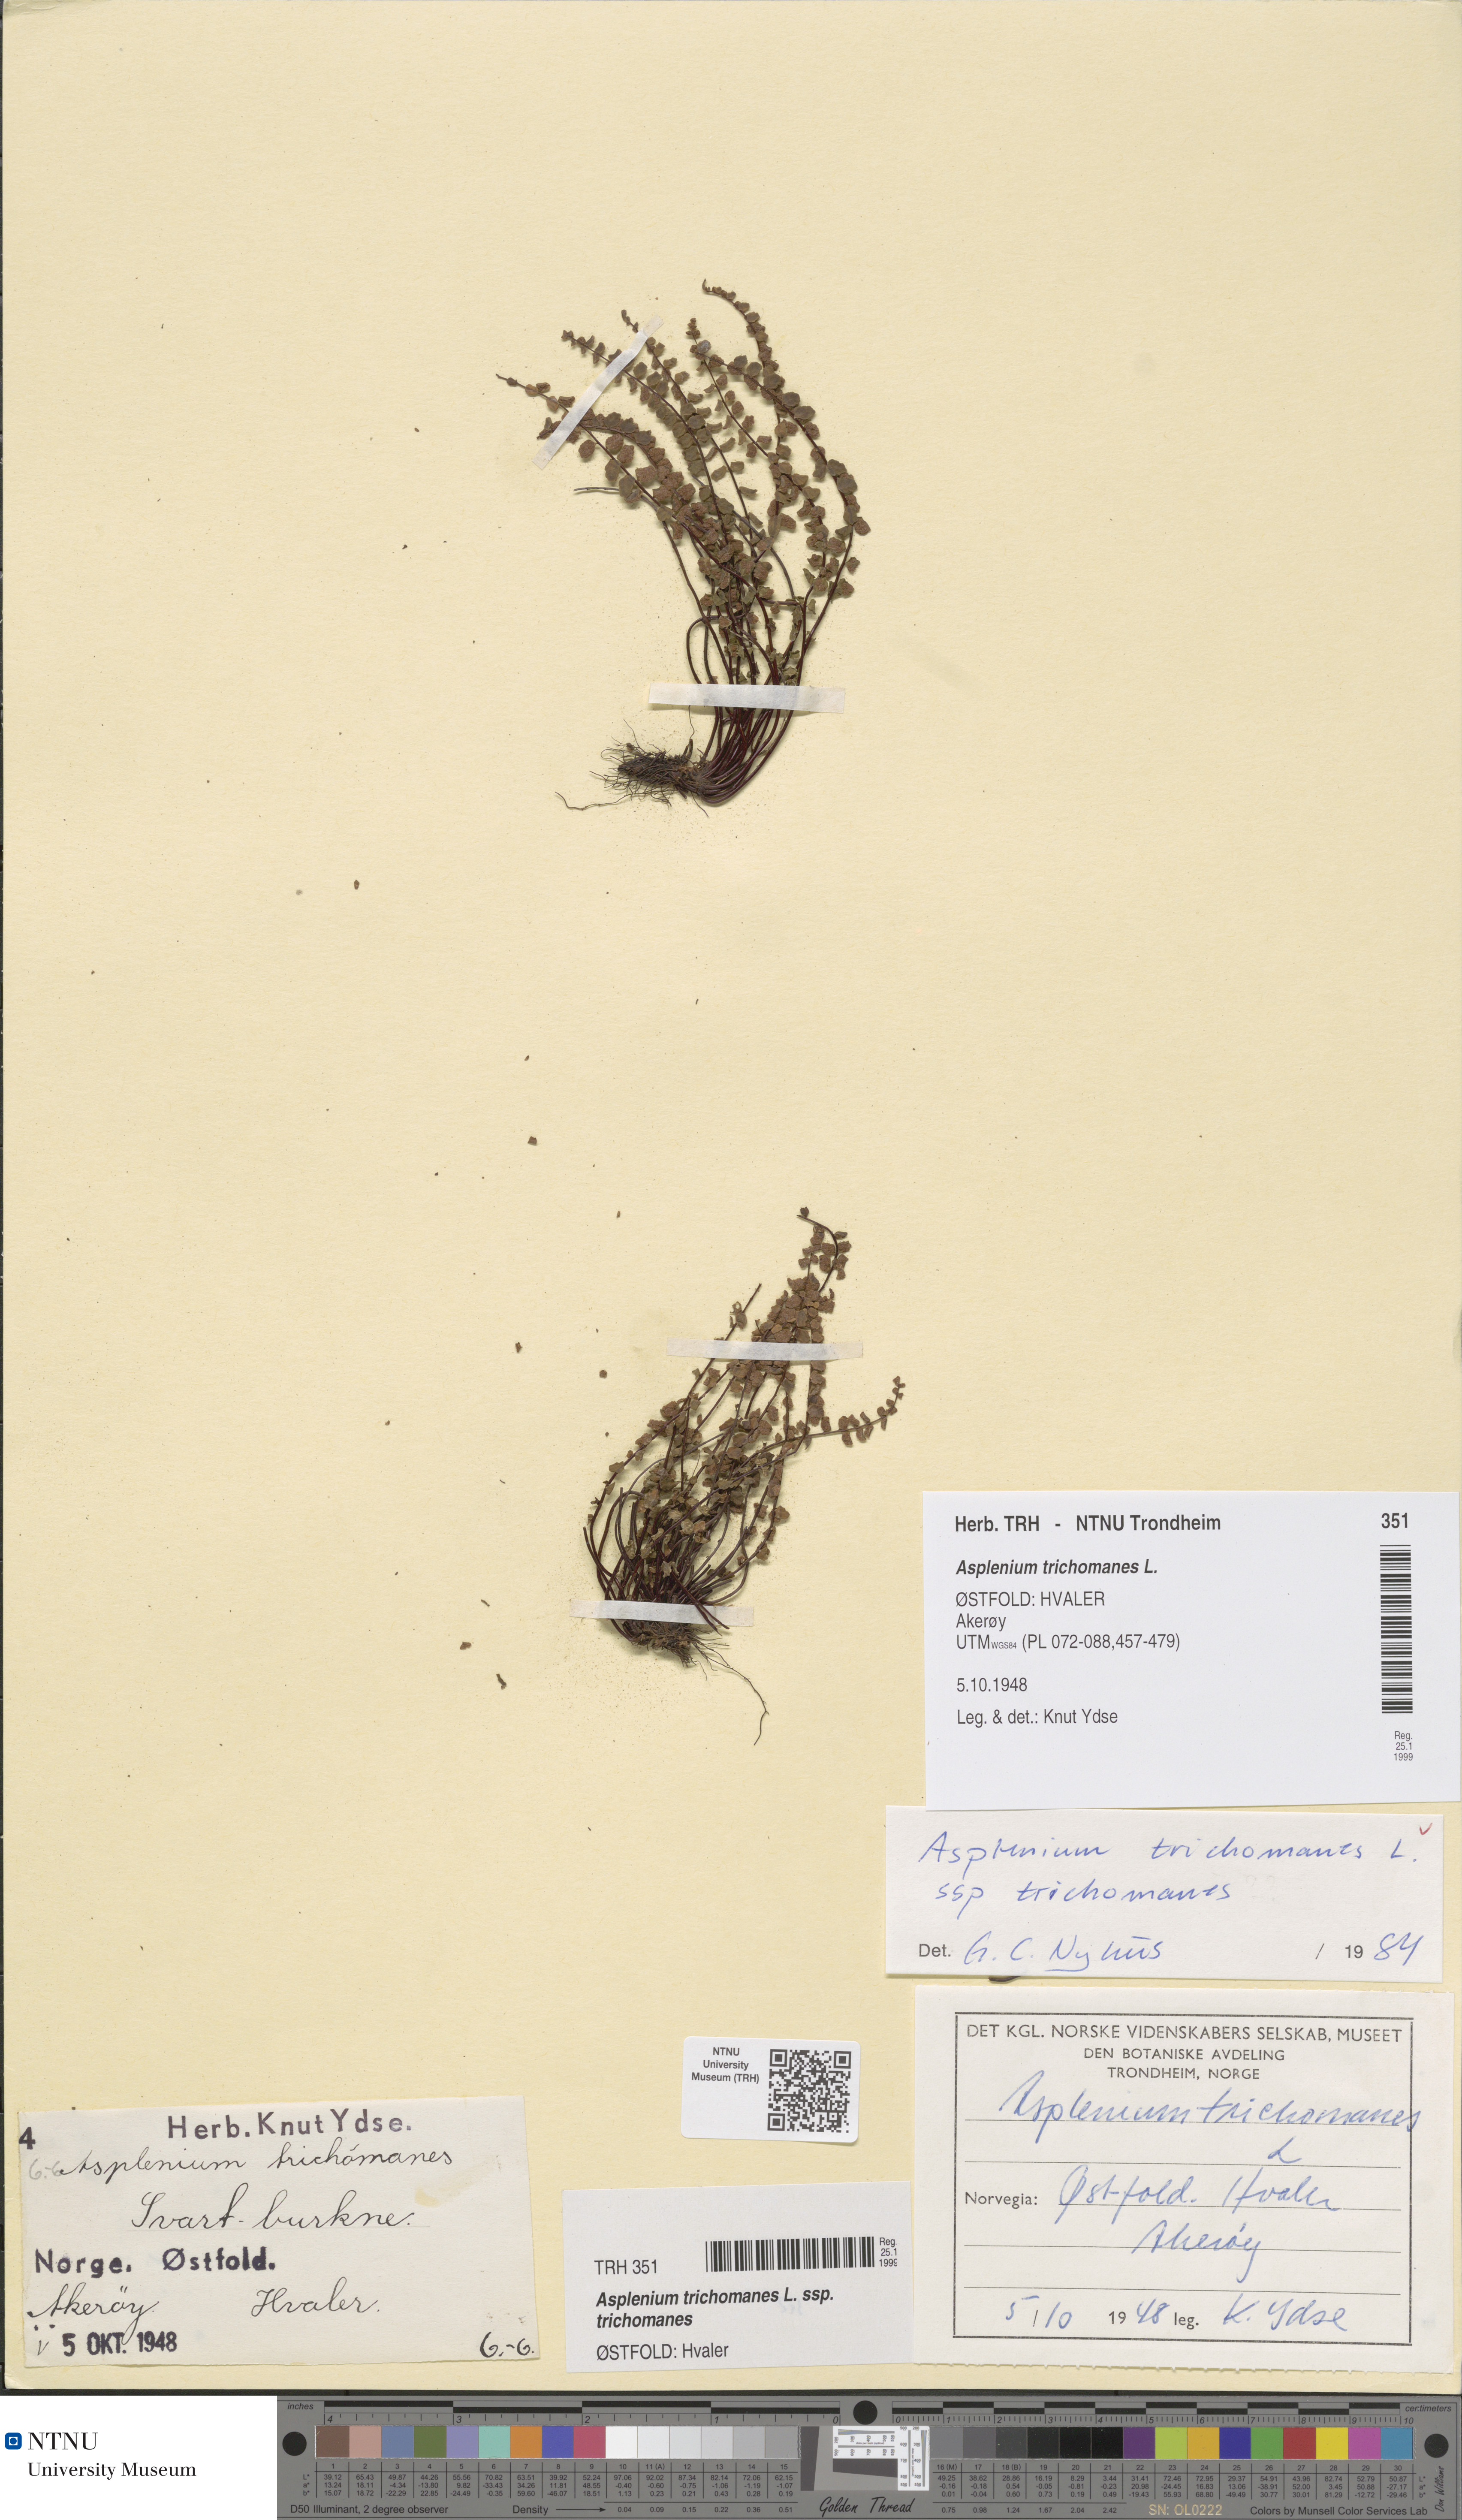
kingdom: Plantae
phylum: Tracheophyta
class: Polypodiopsida
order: Polypodiales
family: Aspleniaceae
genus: Asplenium
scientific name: Asplenium trichomanes
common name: Maidenhair spleenwort
